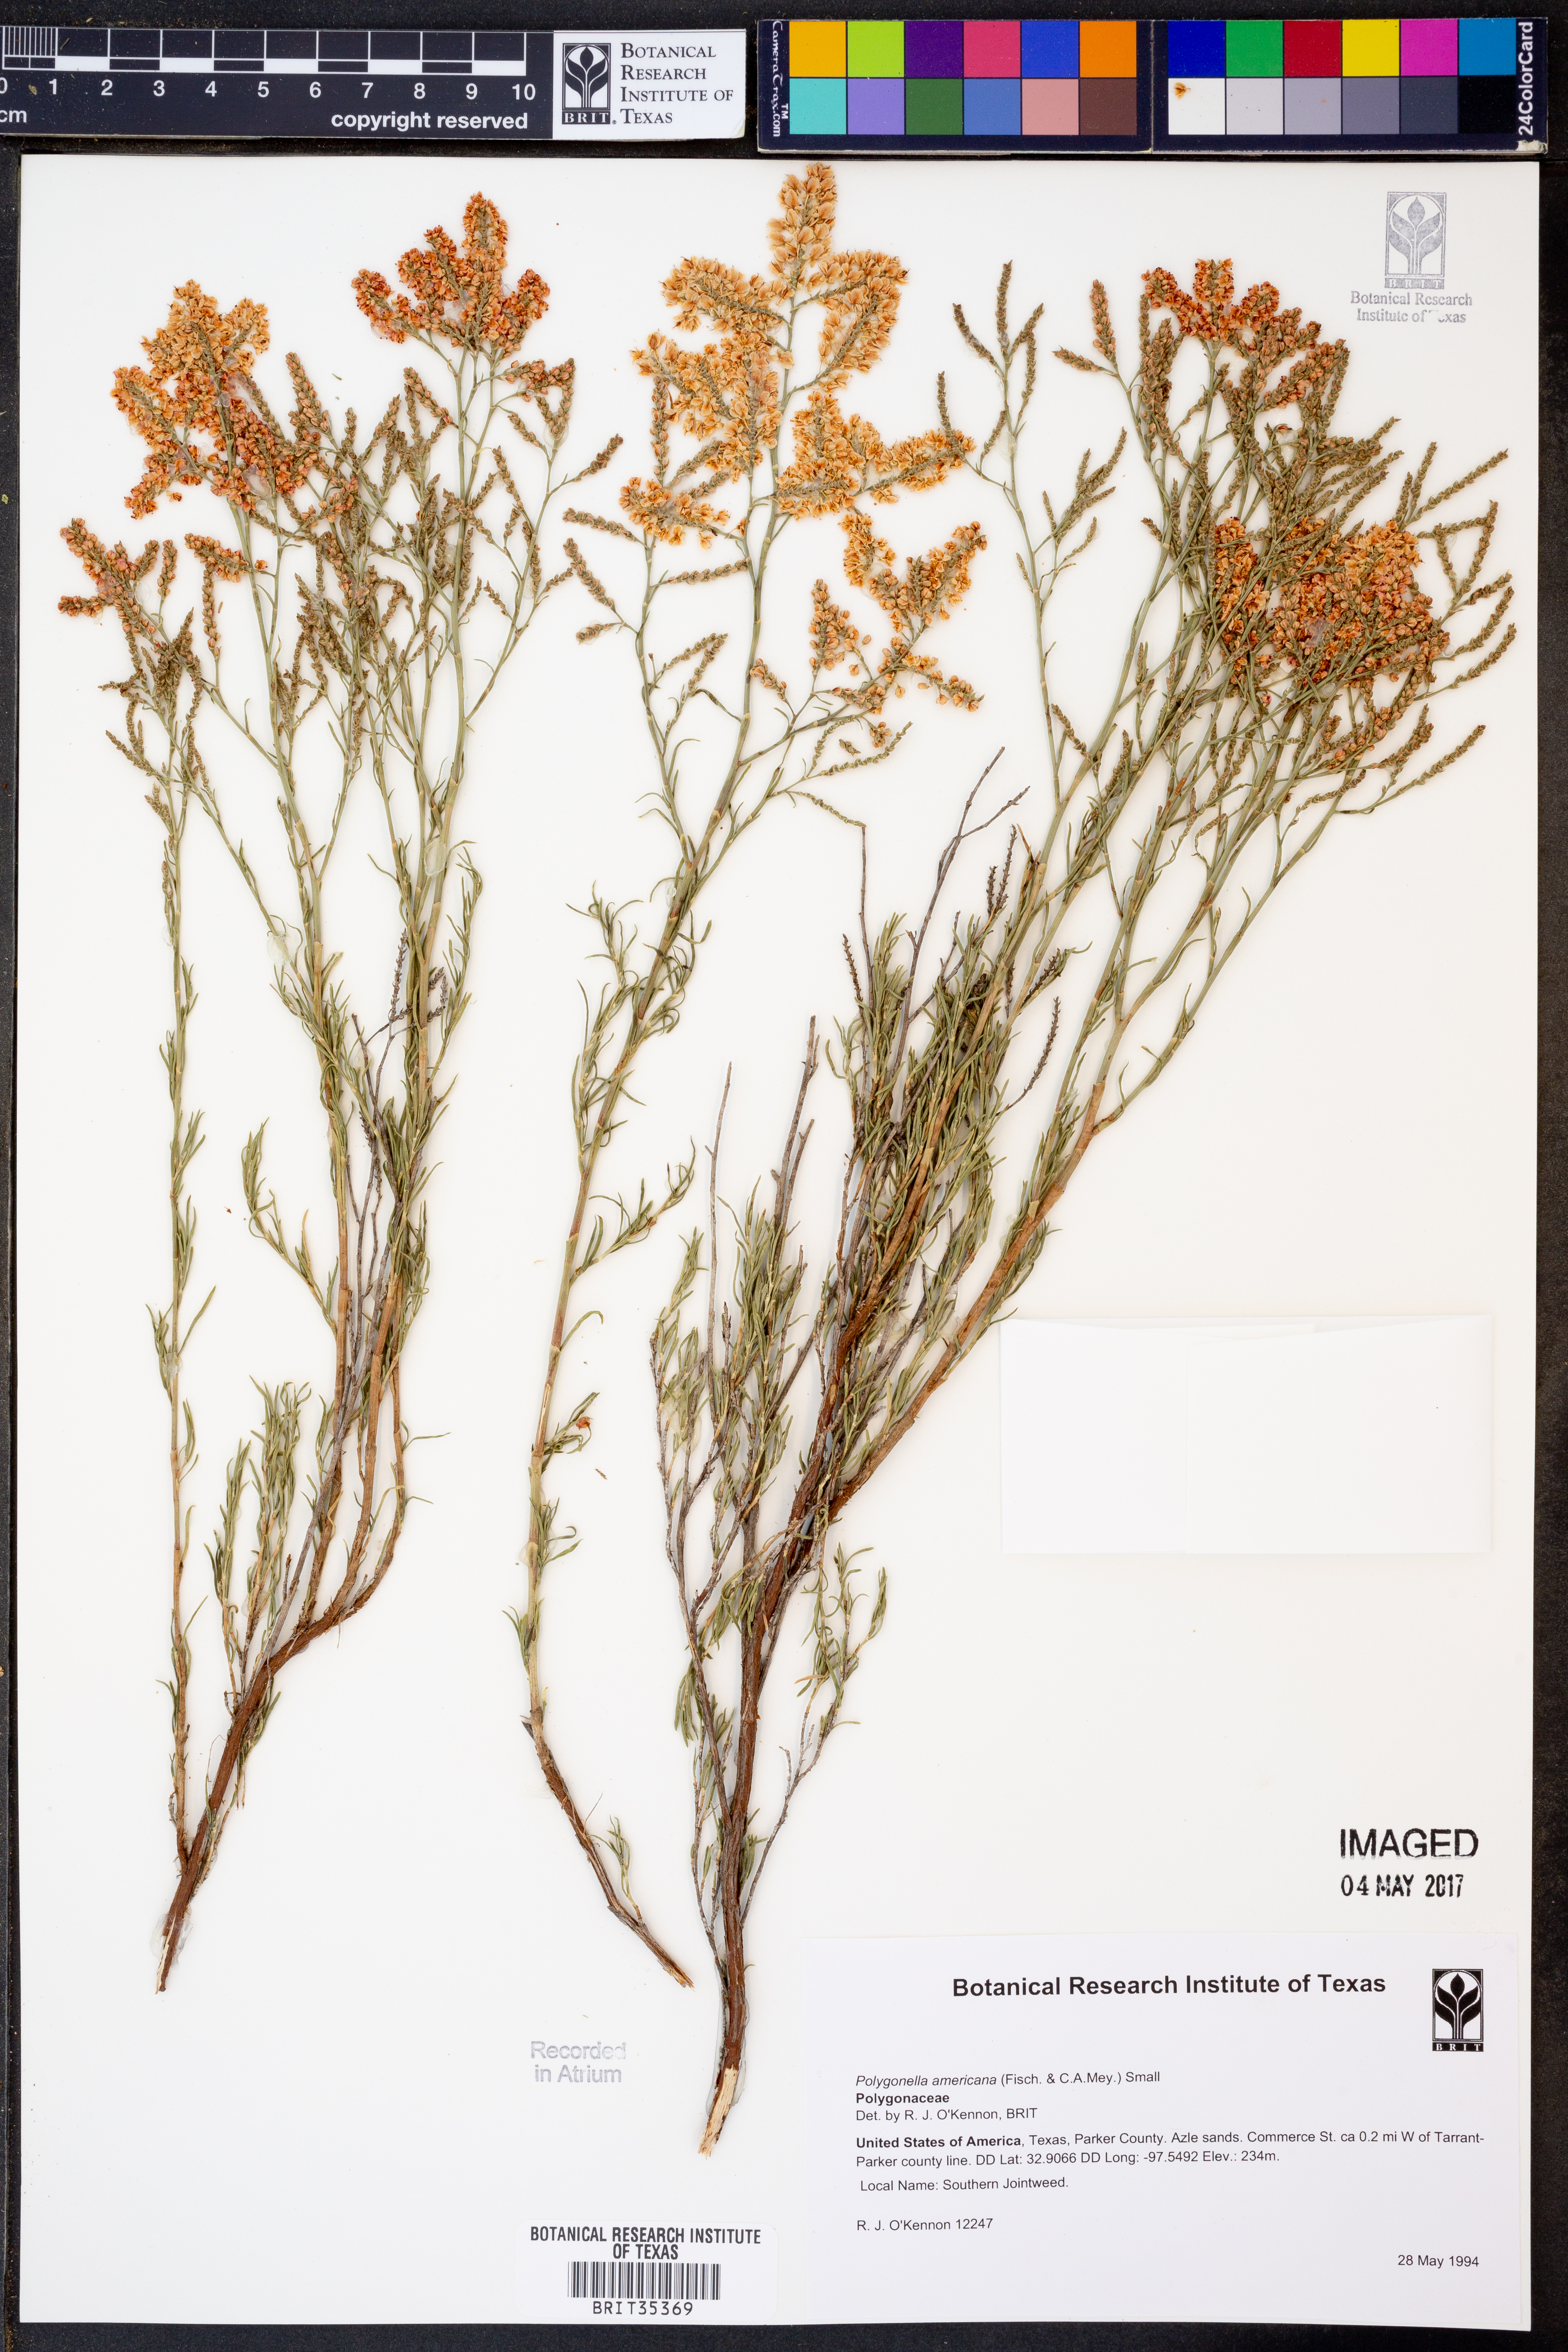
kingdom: Plantae
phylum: Tracheophyta
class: Magnoliopsida
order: Caryophyllales
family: Polygonaceae
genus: Polygonella
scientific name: Polygonella americana
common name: Southern jointweed
